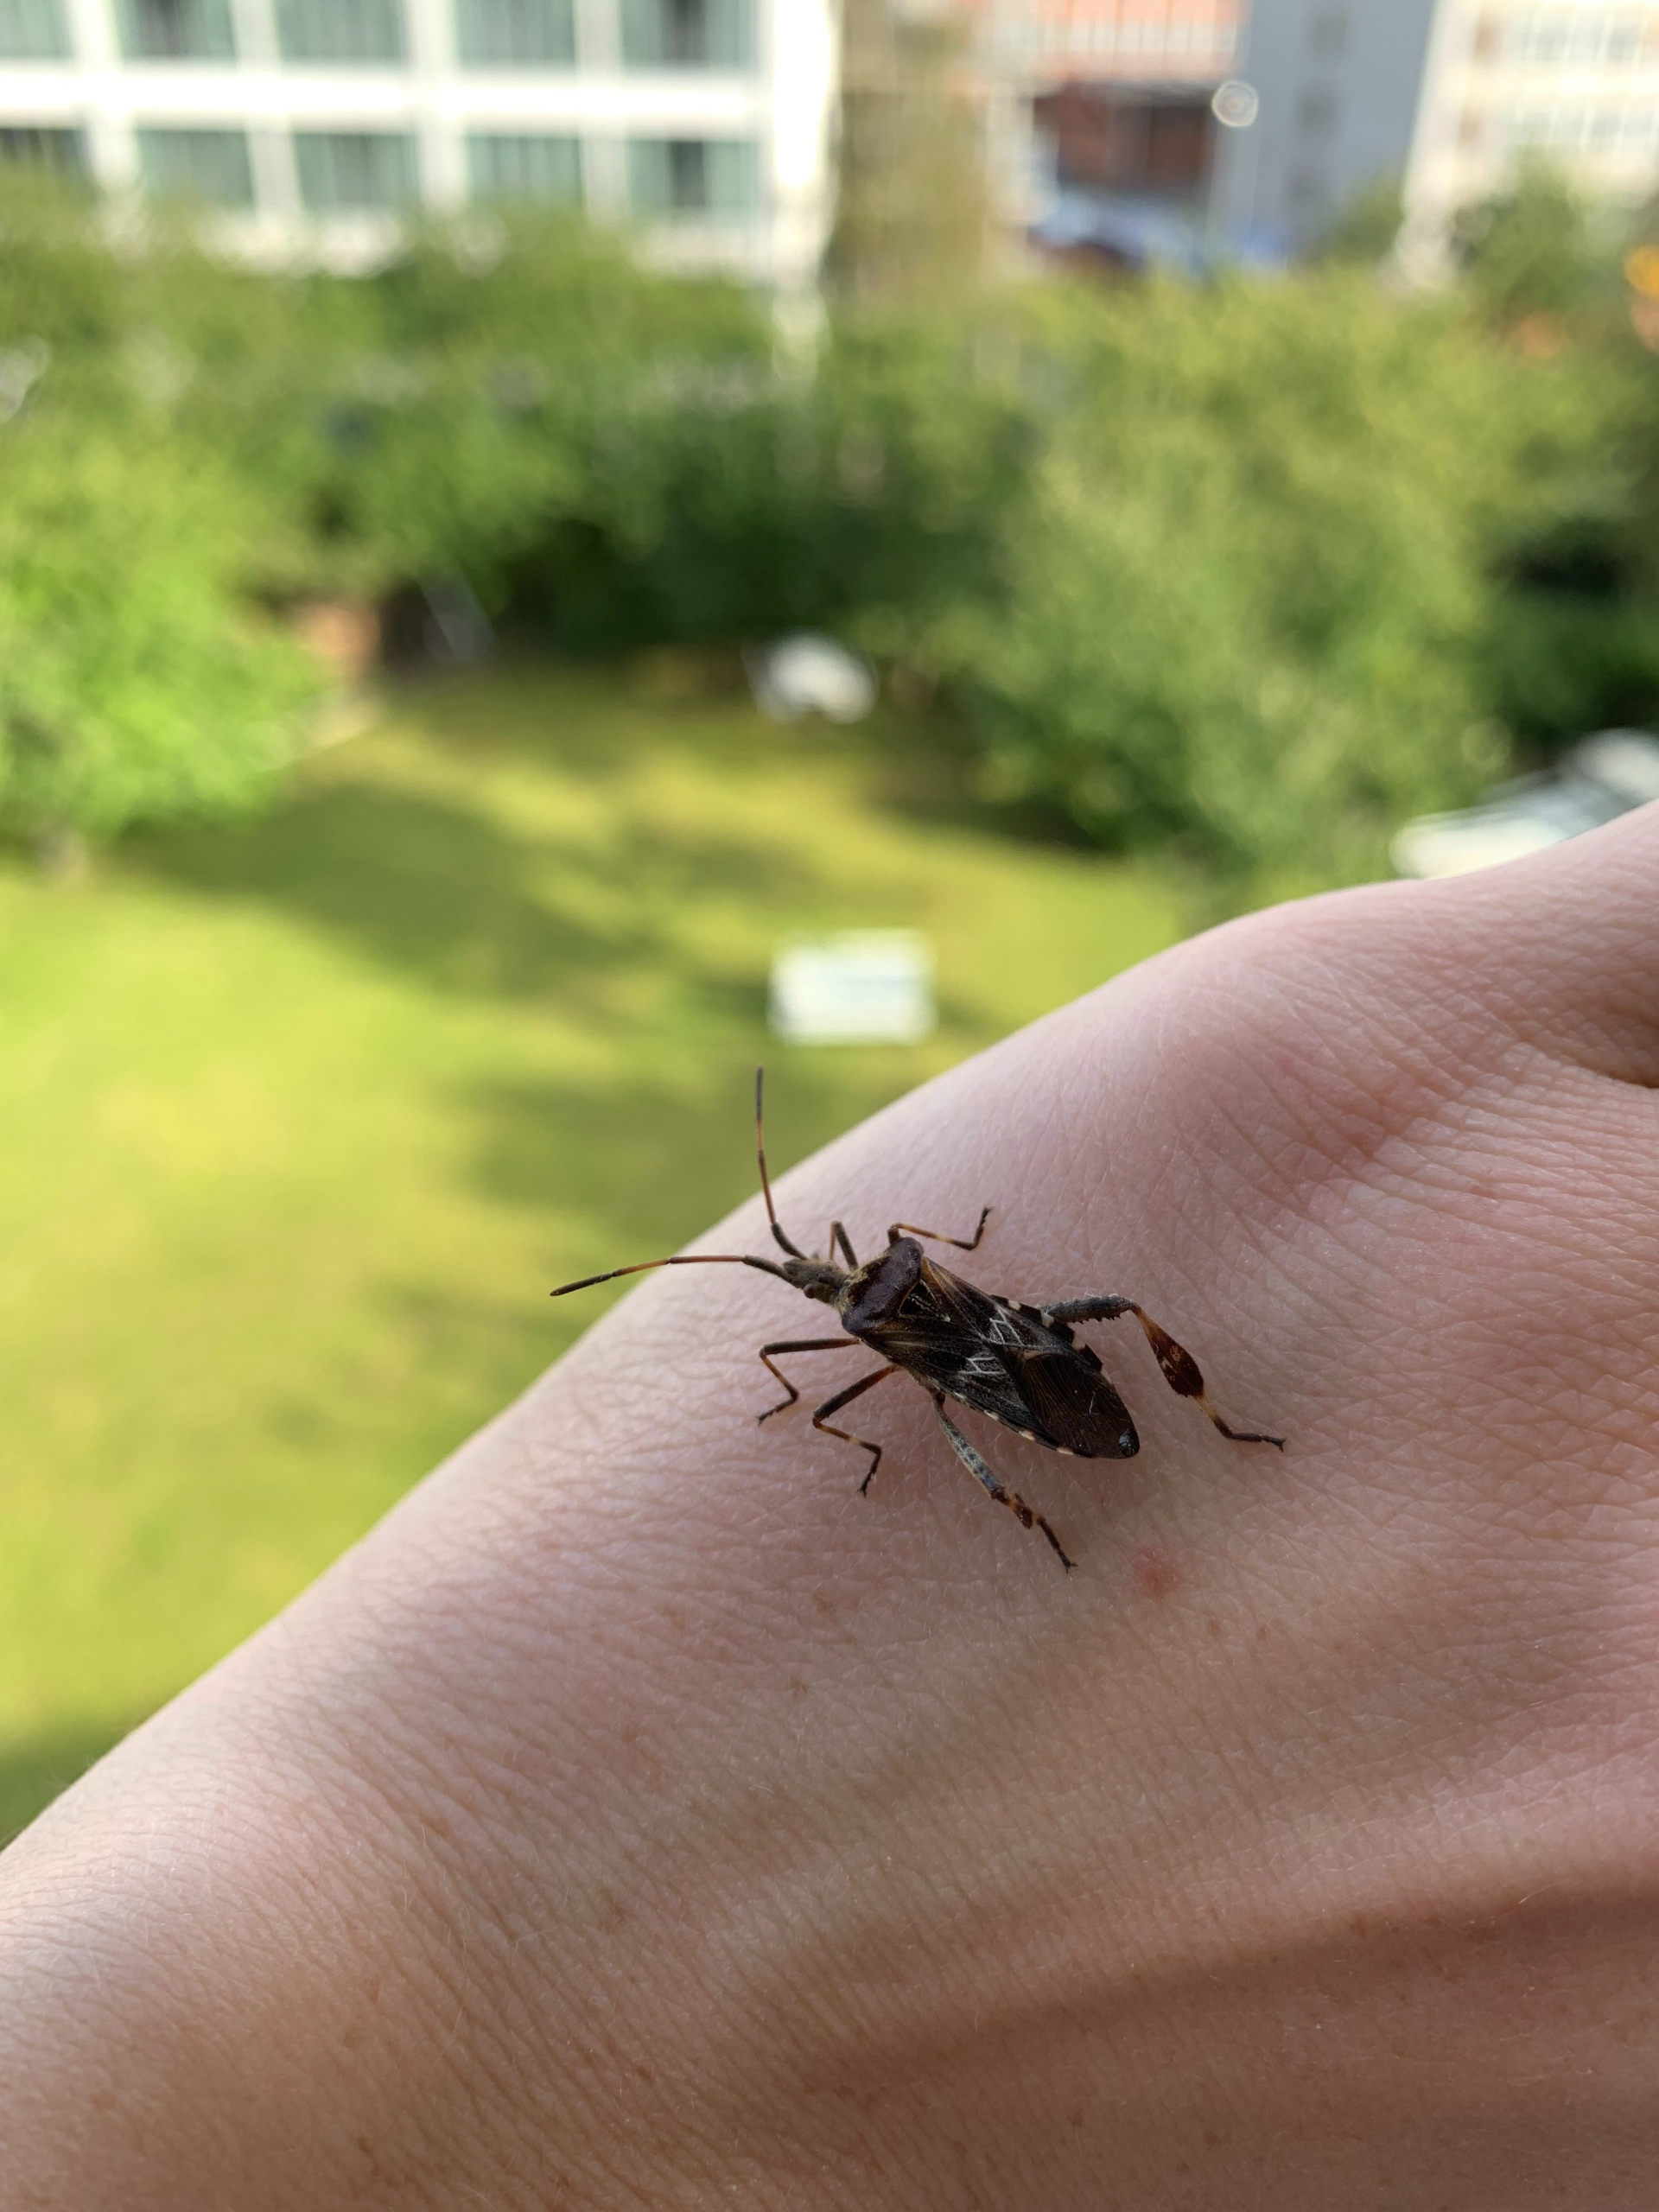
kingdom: Animalia
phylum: Arthropoda
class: Insecta
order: Hemiptera
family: Coreidae
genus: Leptoglossus
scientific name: Leptoglossus occidentalis
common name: Amerikansk fyrretæge
